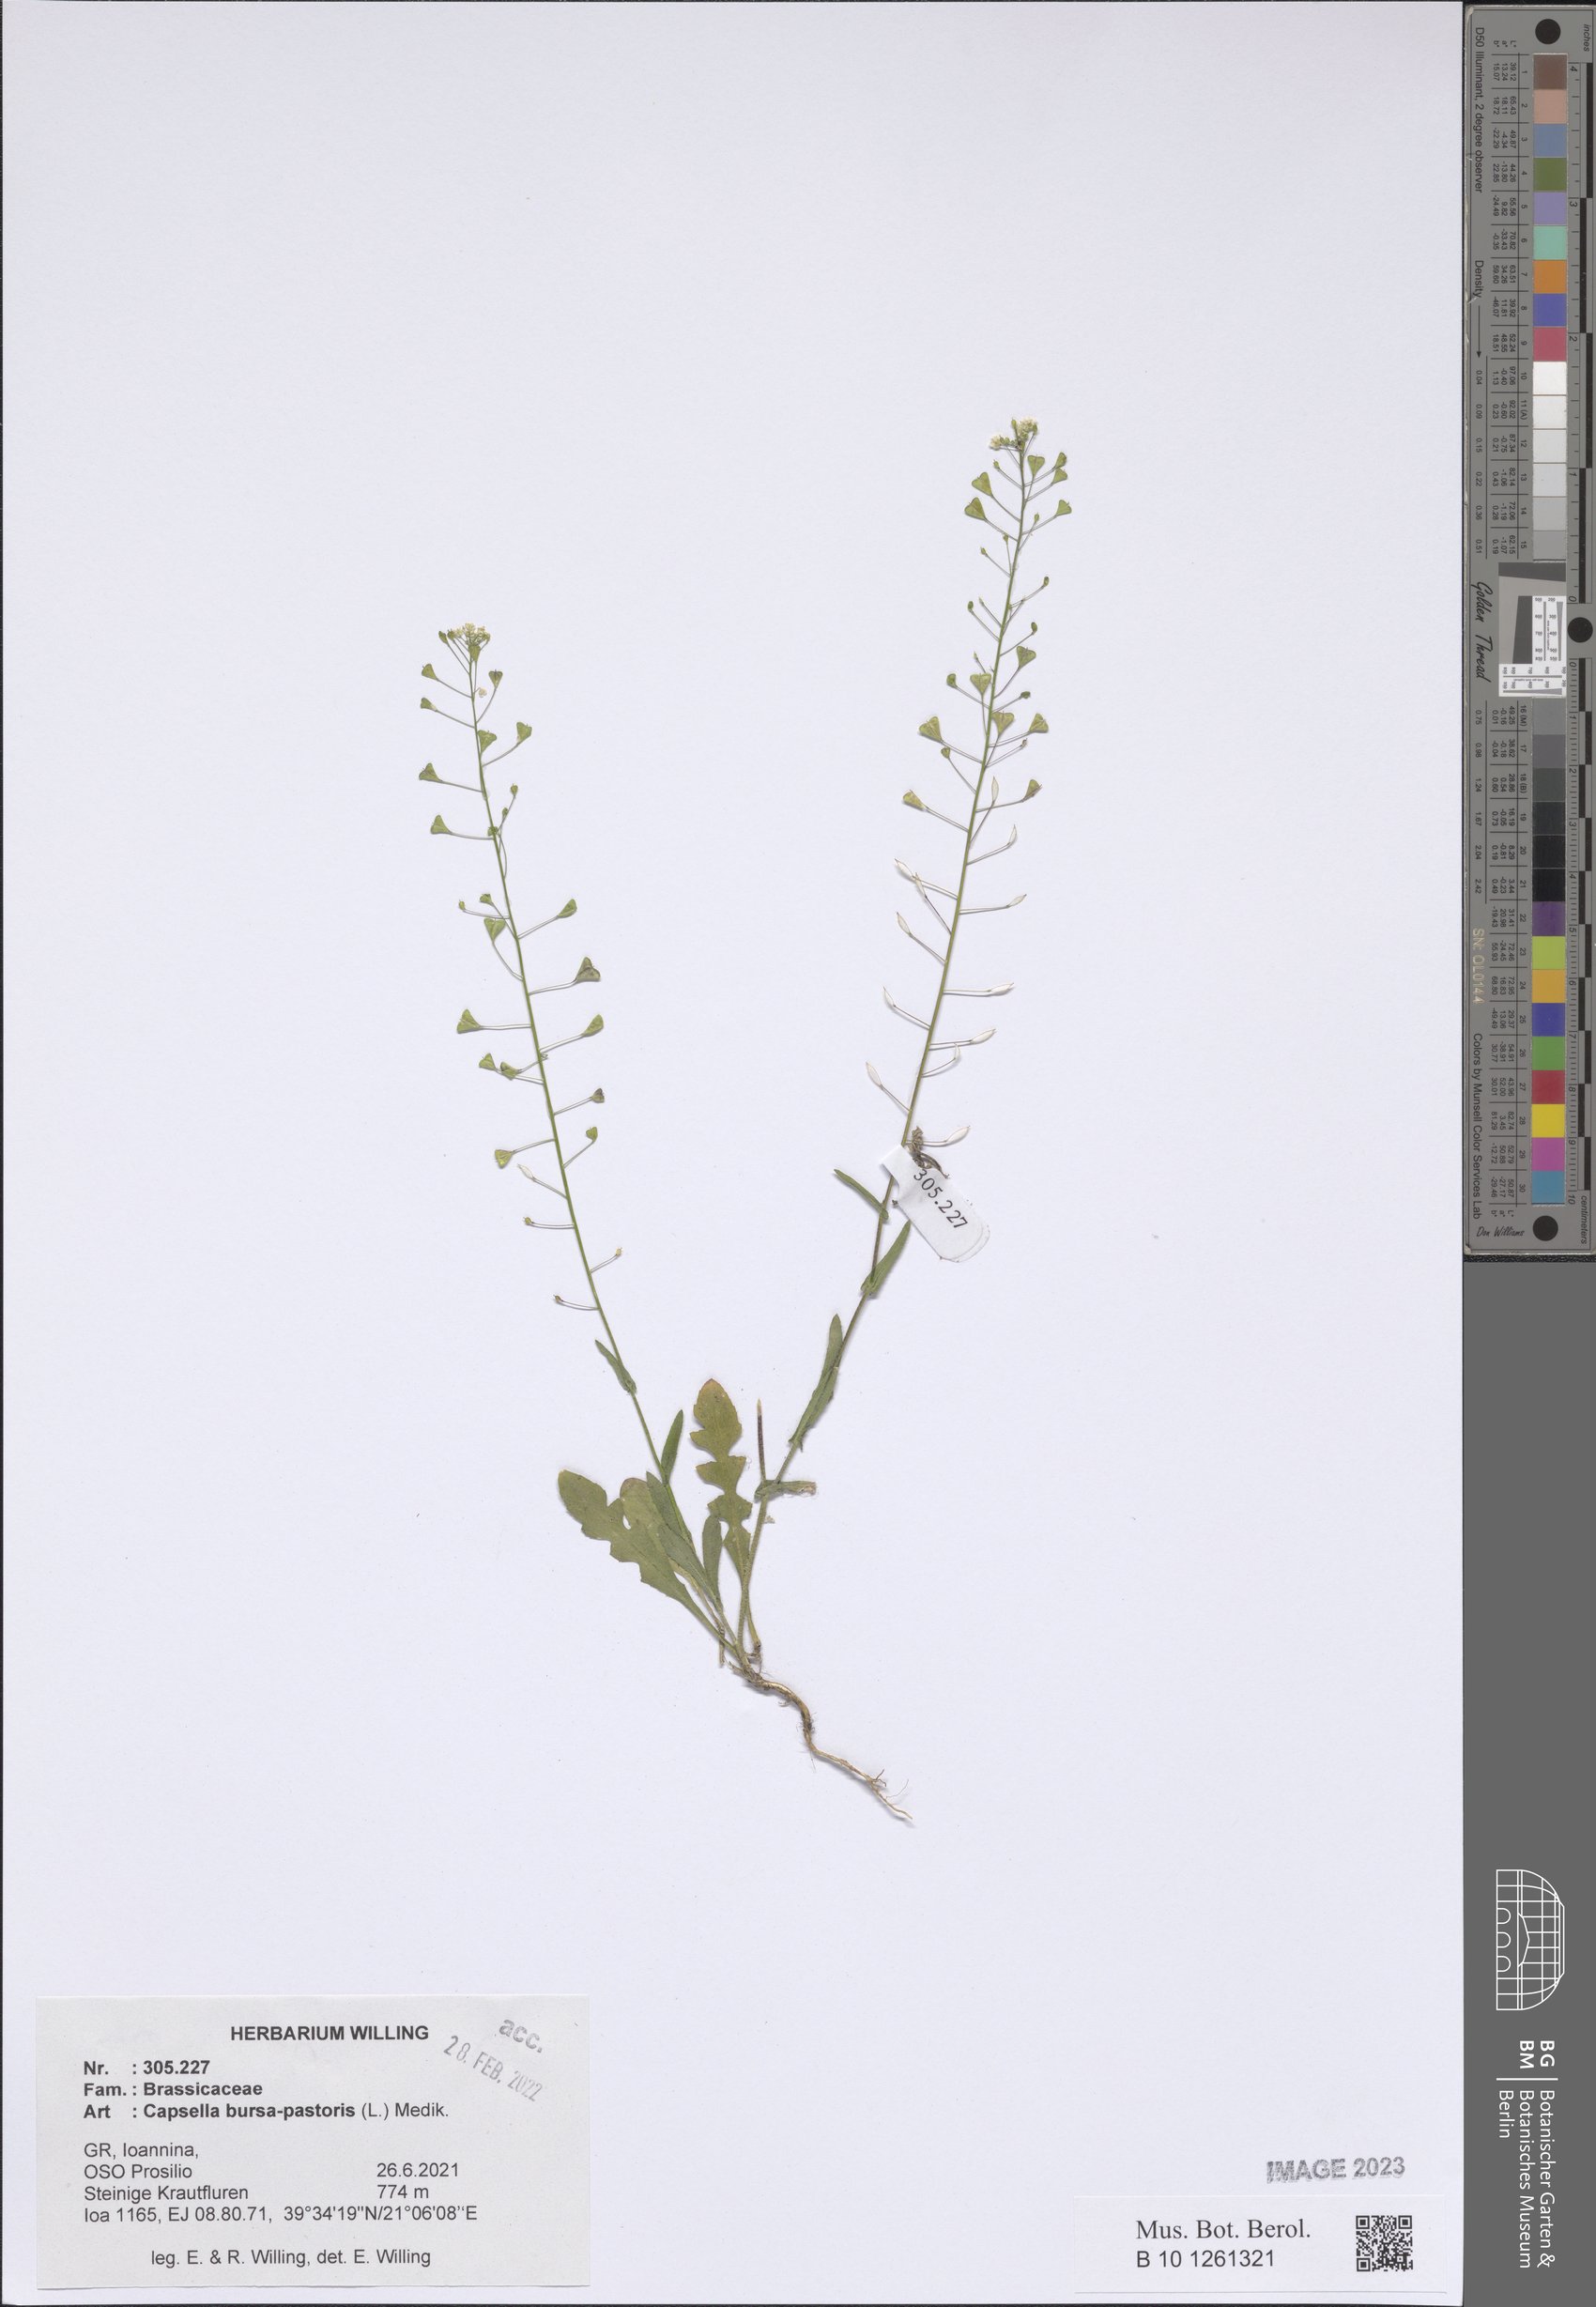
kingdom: Plantae
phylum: Tracheophyta
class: Magnoliopsida
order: Brassicales
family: Brassicaceae
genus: Capsella
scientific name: Capsella bursa-pastoris
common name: Shepherd's purse
